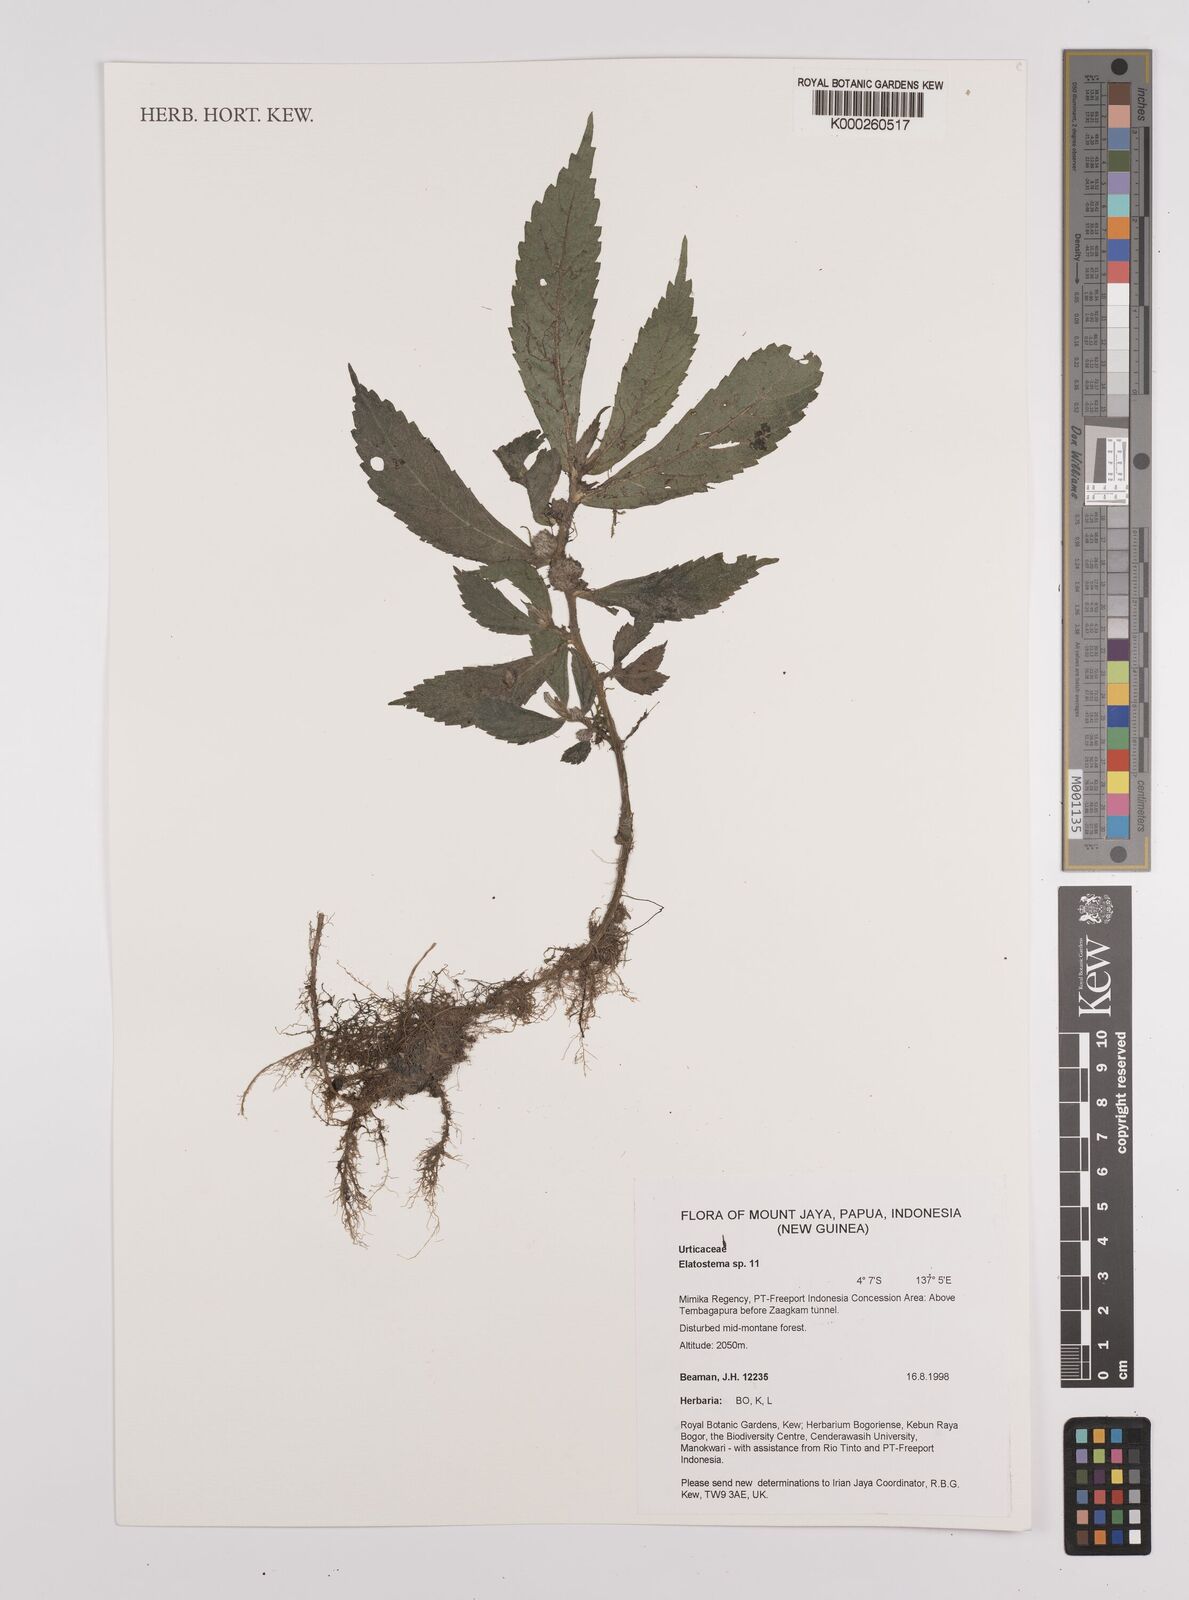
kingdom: Plantae
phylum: Tracheophyta
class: Magnoliopsida
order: Rosales
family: Urticaceae
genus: Elatostema
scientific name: Elatostema
